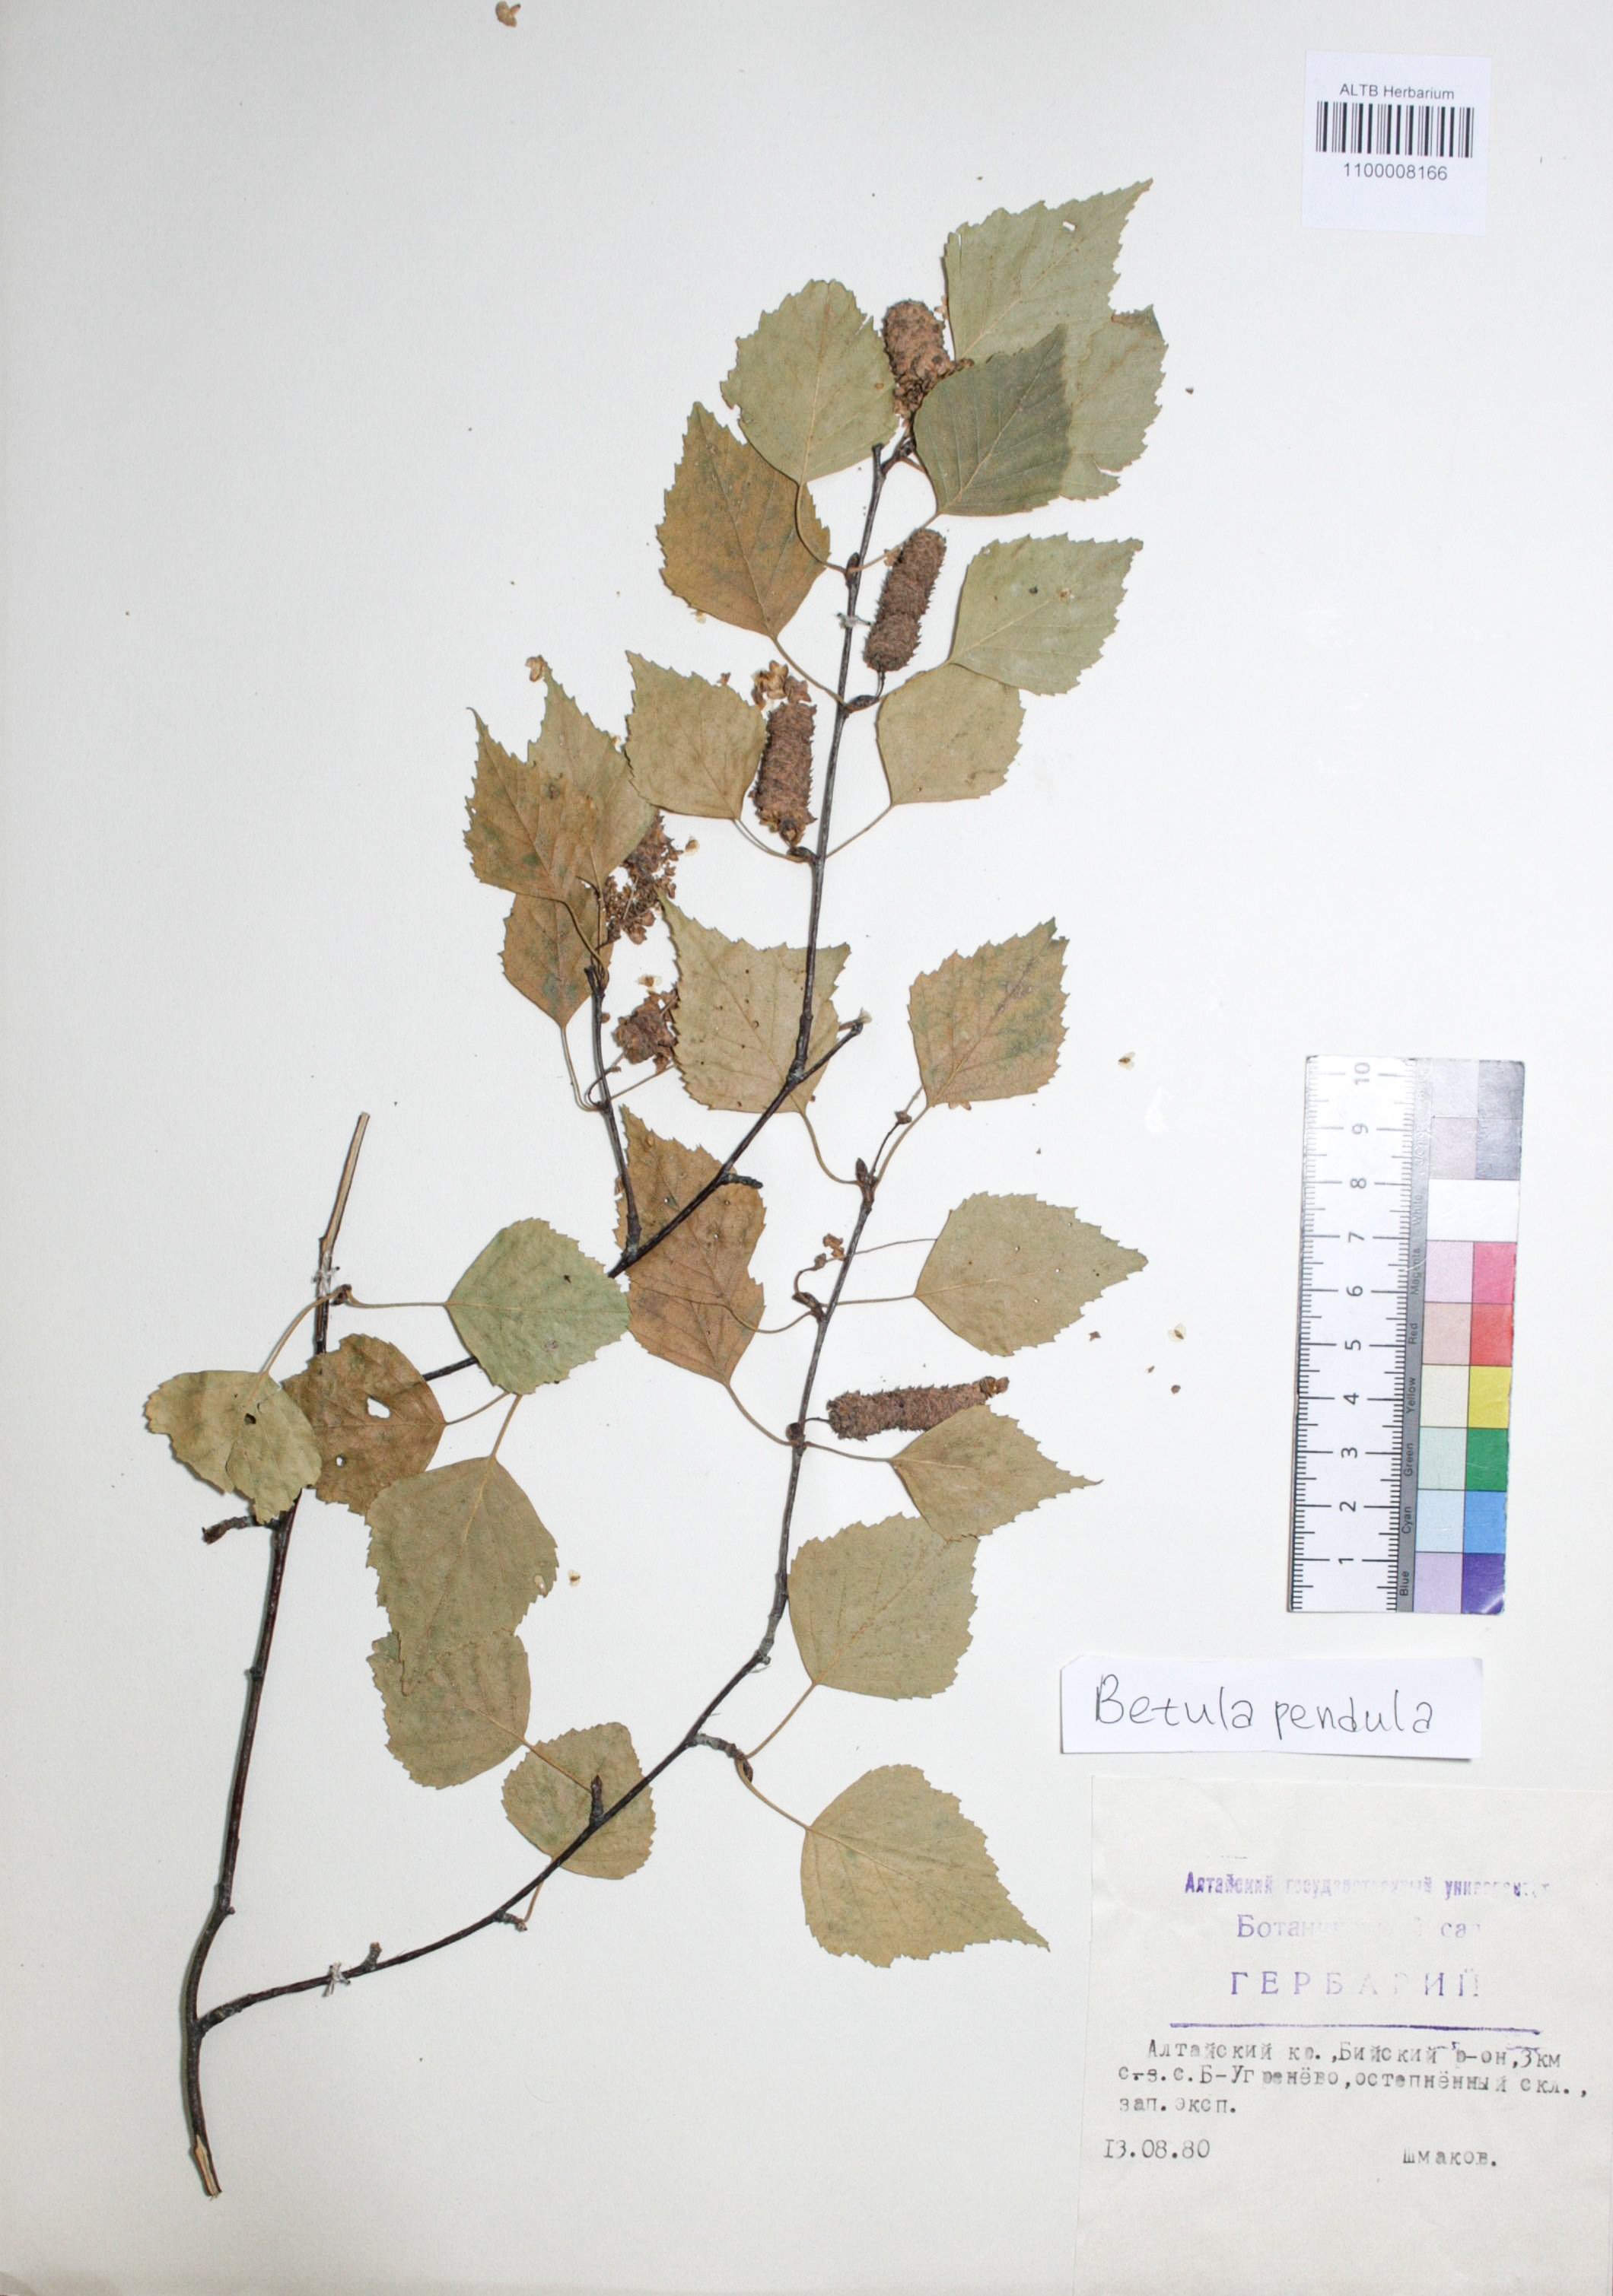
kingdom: Plantae
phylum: Tracheophyta
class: Magnoliopsida
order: Fagales
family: Betulaceae
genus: Betula
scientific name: Betula pendula
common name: Silver birch
